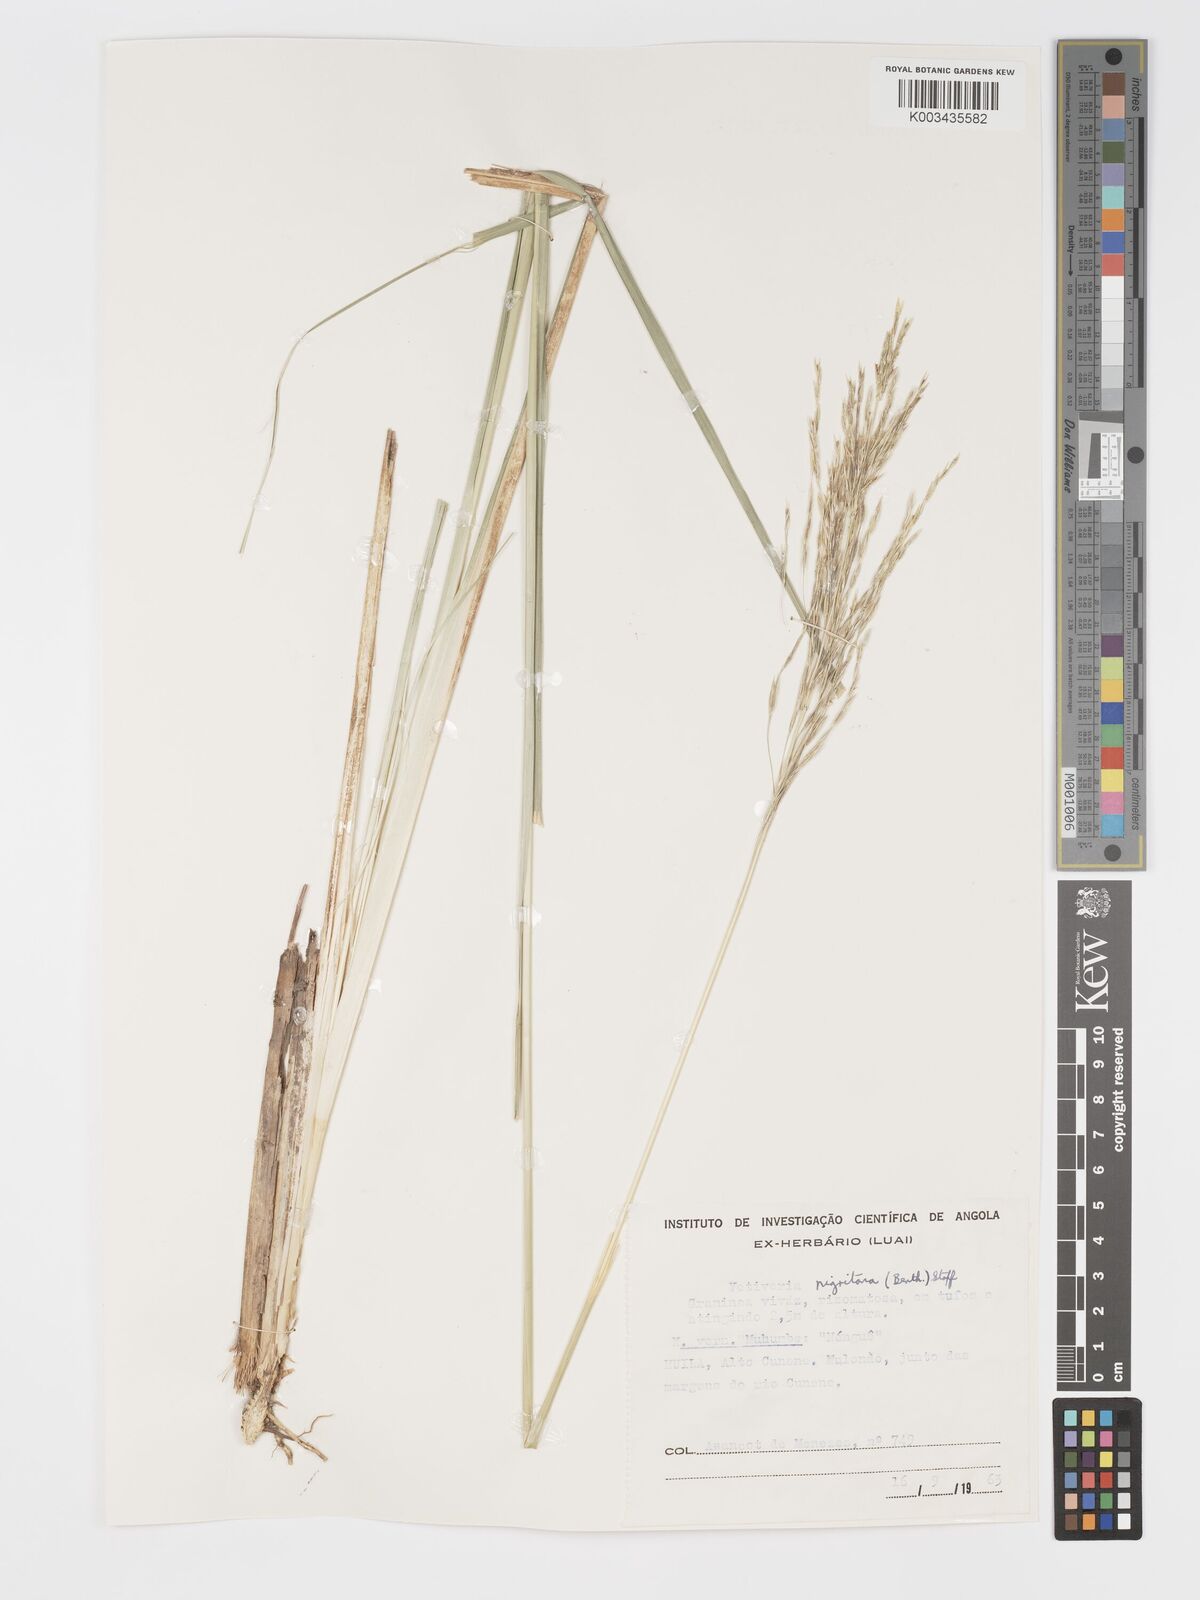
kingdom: Plantae
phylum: Tracheophyta
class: Liliopsida
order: Poales
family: Poaceae
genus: Chrysopogon
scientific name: Chrysopogon nigritanus
